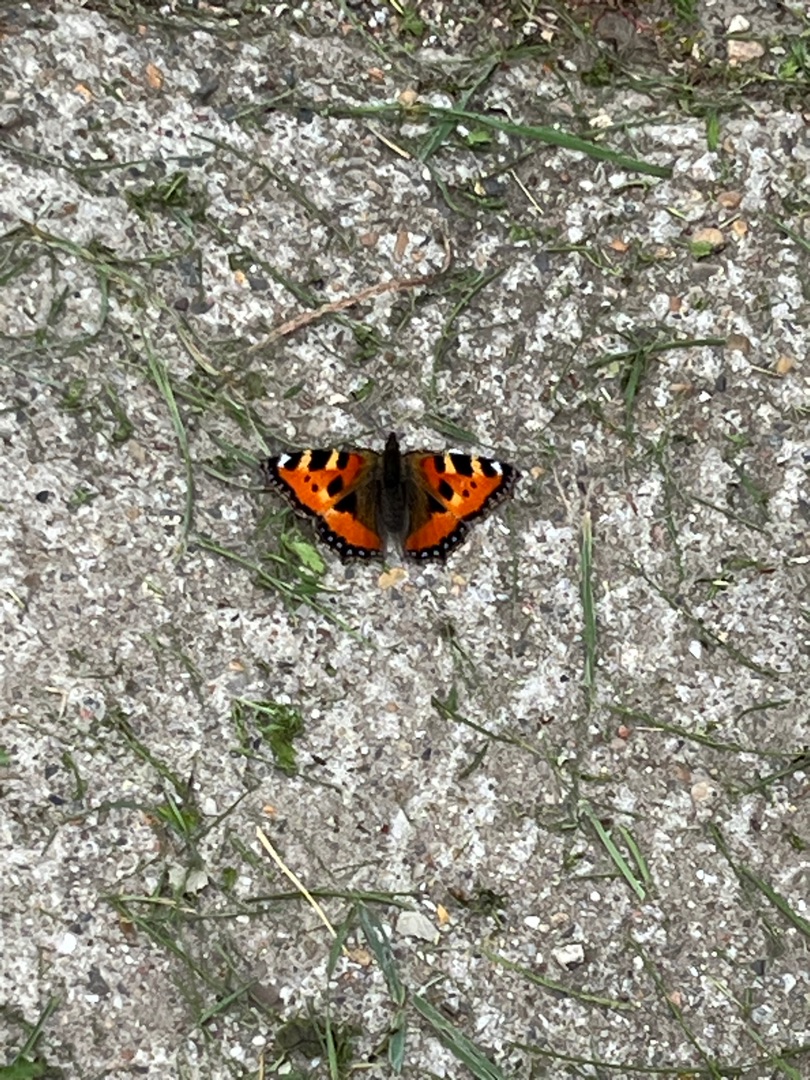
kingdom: Animalia
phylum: Arthropoda
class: Insecta
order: Lepidoptera
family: Nymphalidae
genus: Aglais
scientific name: Aglais urticae
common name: Nældens takvinge
